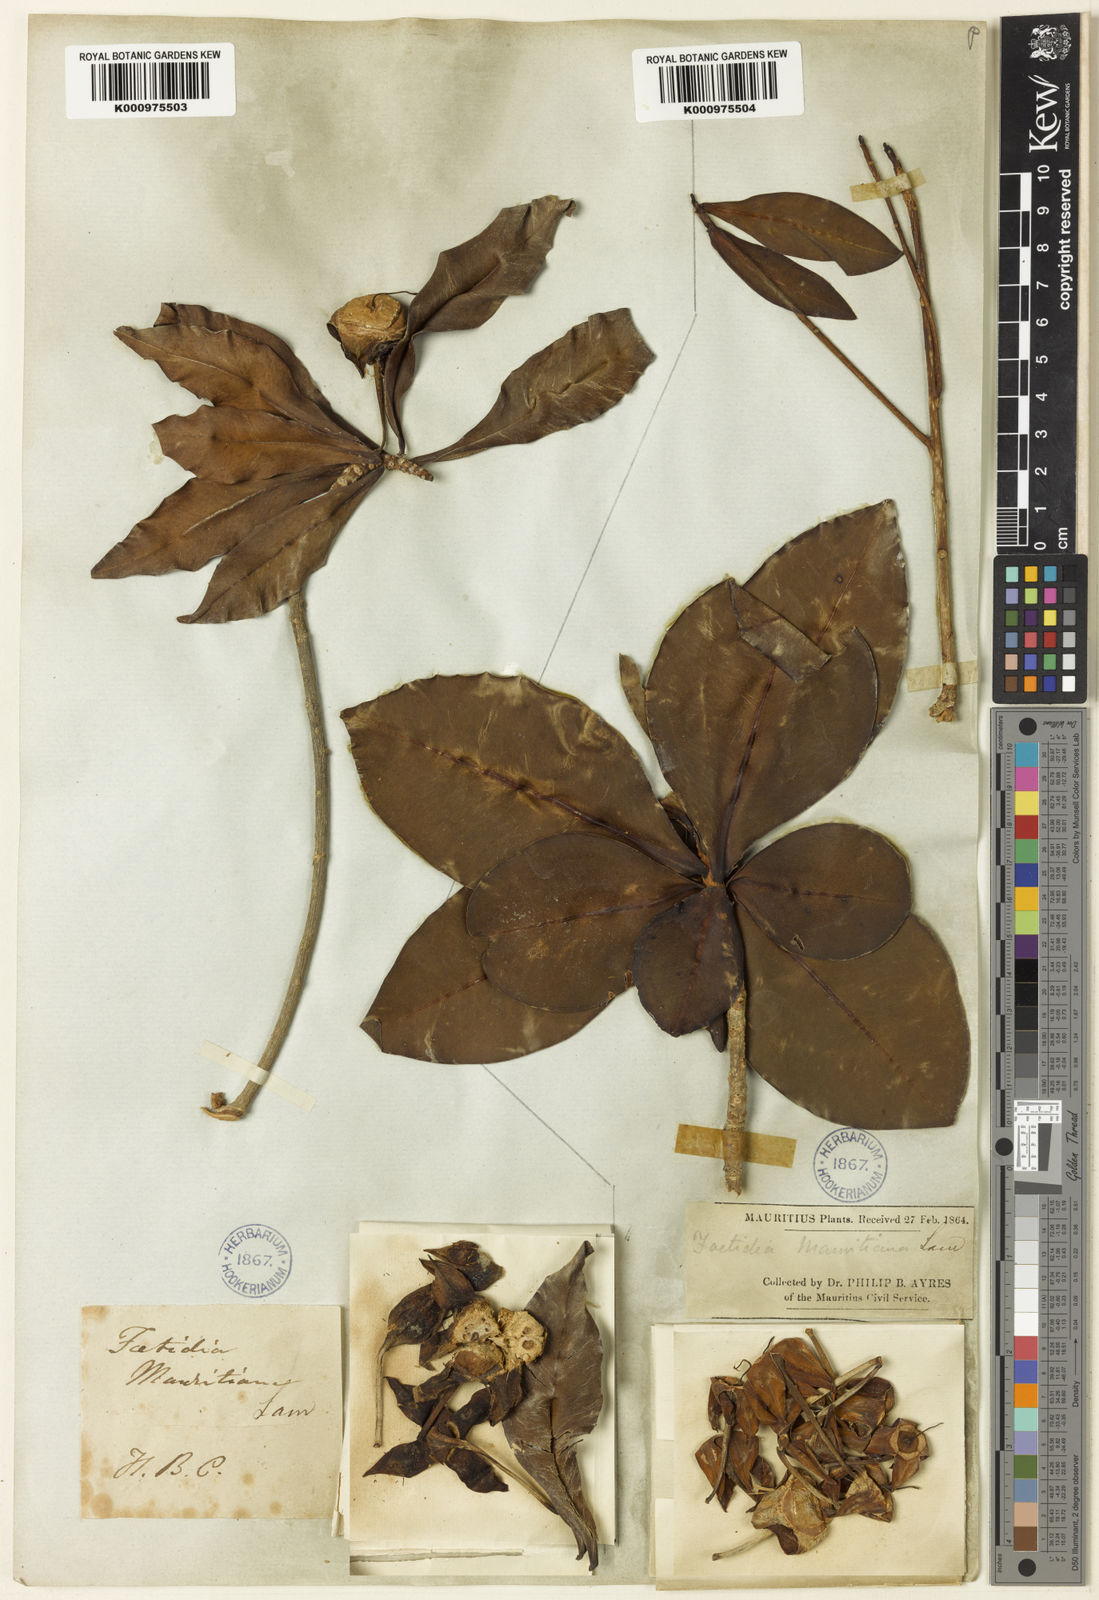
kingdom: Plantae
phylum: Tracheophyta
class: Magnoliopsida
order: Ericales
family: Lecythidaceae
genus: Foetidia
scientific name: Foetidia mauritiana
